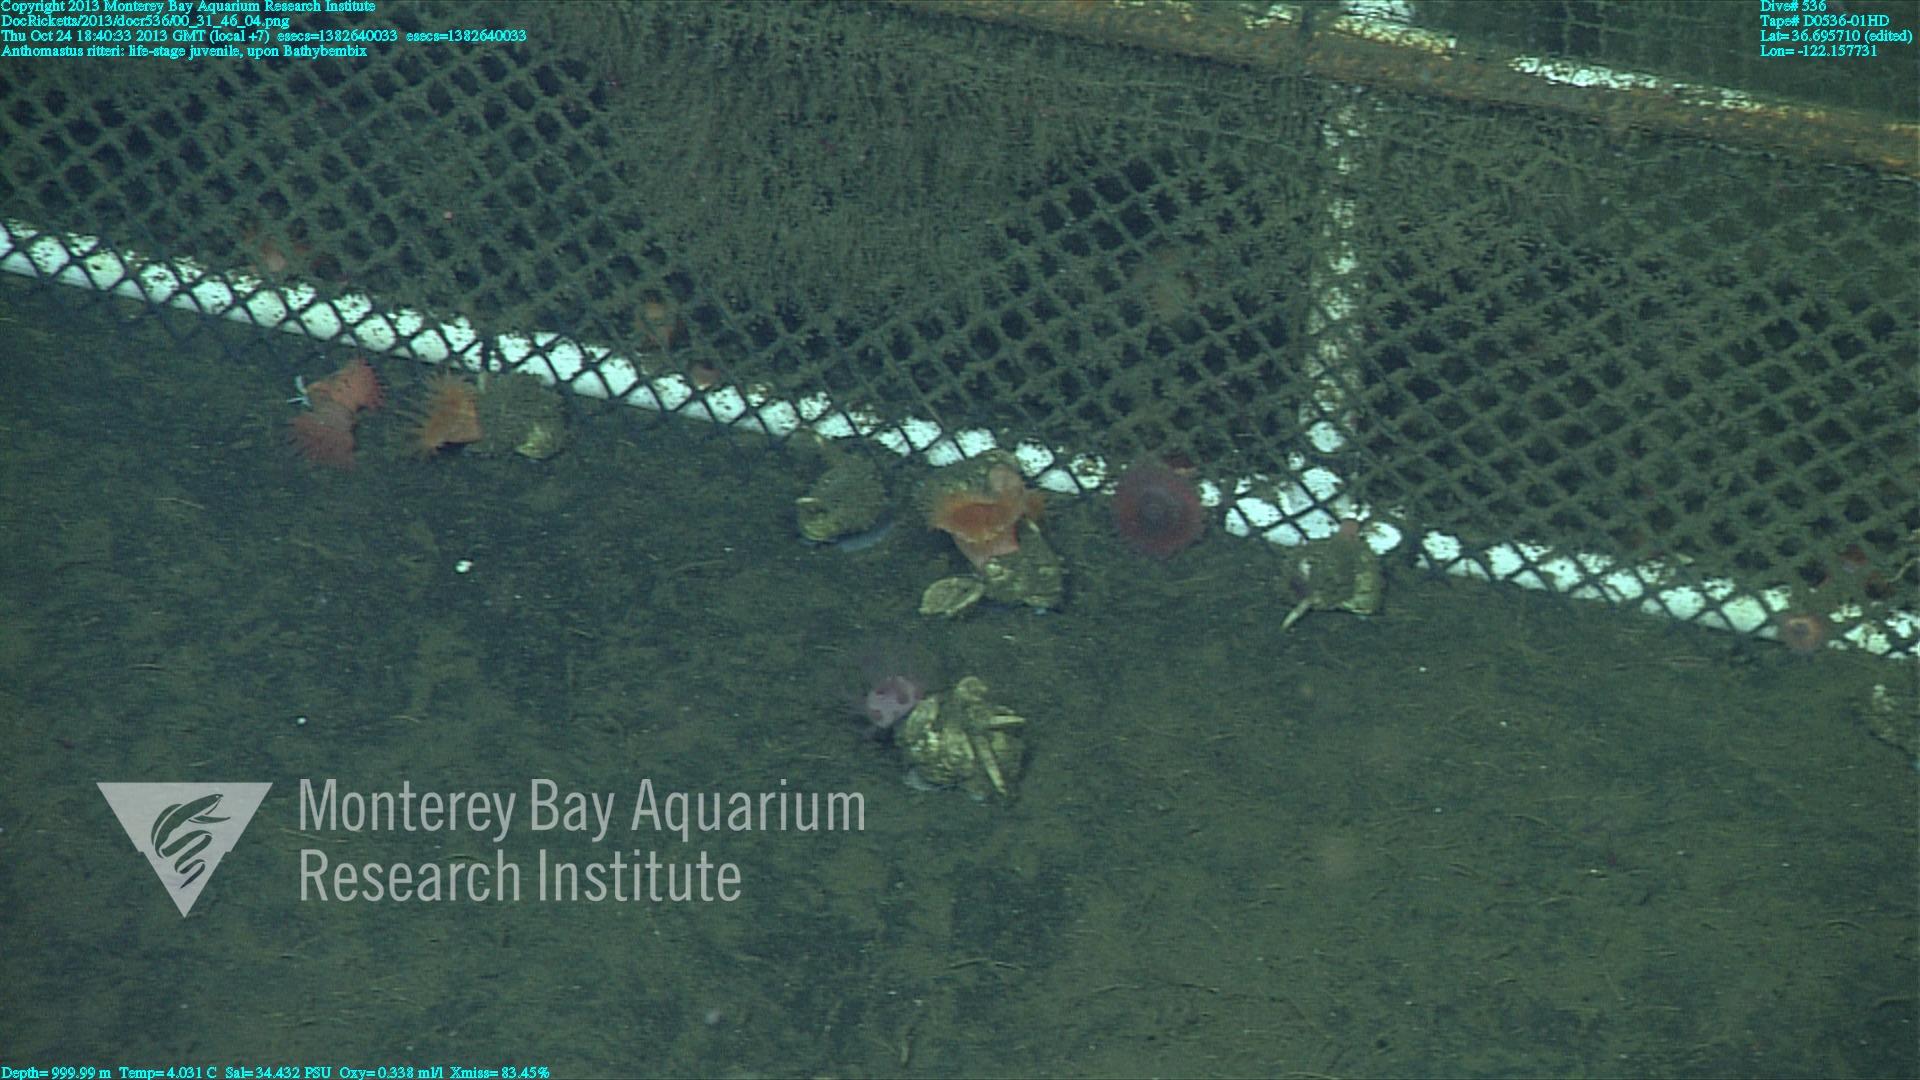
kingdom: Animalia
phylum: Cnidaria
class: Anthozoa
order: Scleralcyonacea
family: Coralliidae
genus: Heteropolypus
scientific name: Heteropolypus ritteri
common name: Ritter's soft coral
